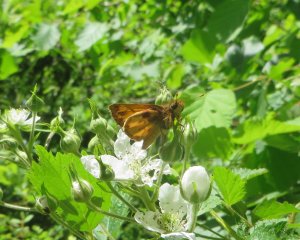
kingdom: Animalia
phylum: Arthropoda
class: Insecta
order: Lepidoptera
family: Hesperiidae
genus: Lon
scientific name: Lon zabulon
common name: Zabulon Skipper
